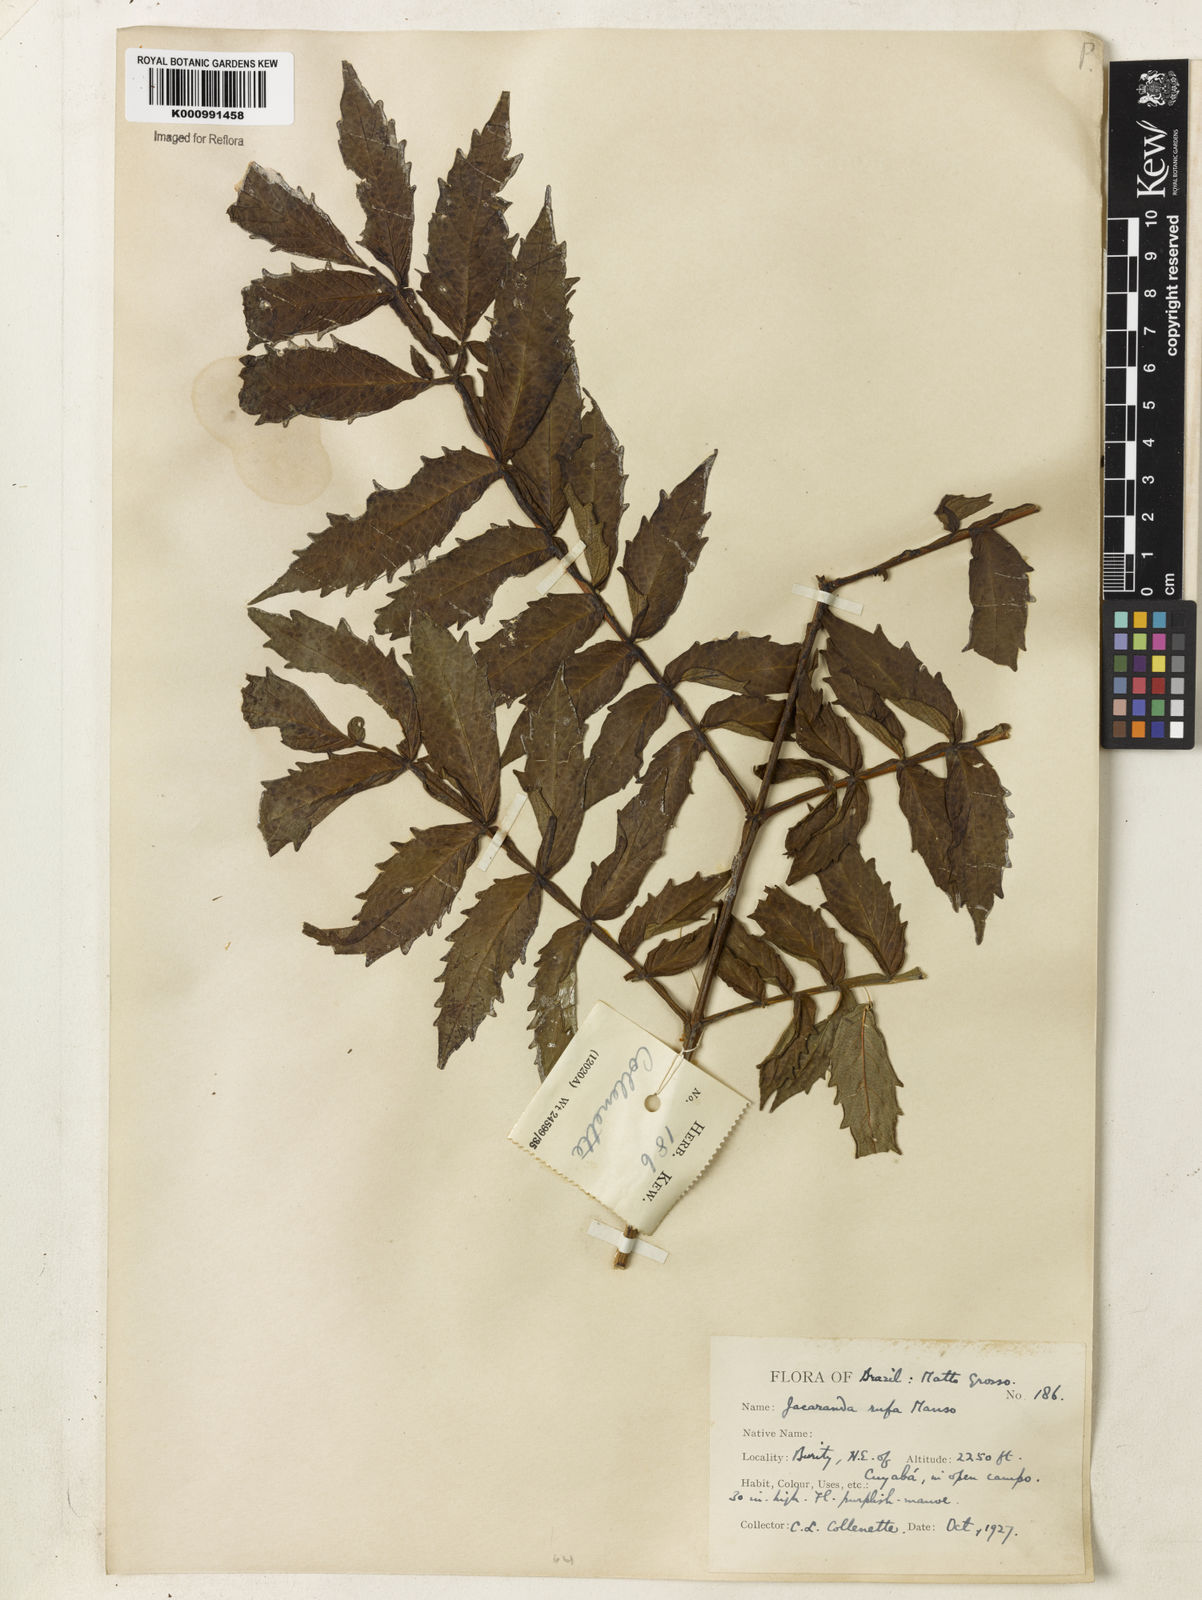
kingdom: Plantae
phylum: Tracheophyta
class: Magnoliopsida
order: Lamiales
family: Bignoniaceae
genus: Jacaranda
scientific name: Jacaranda rufa
